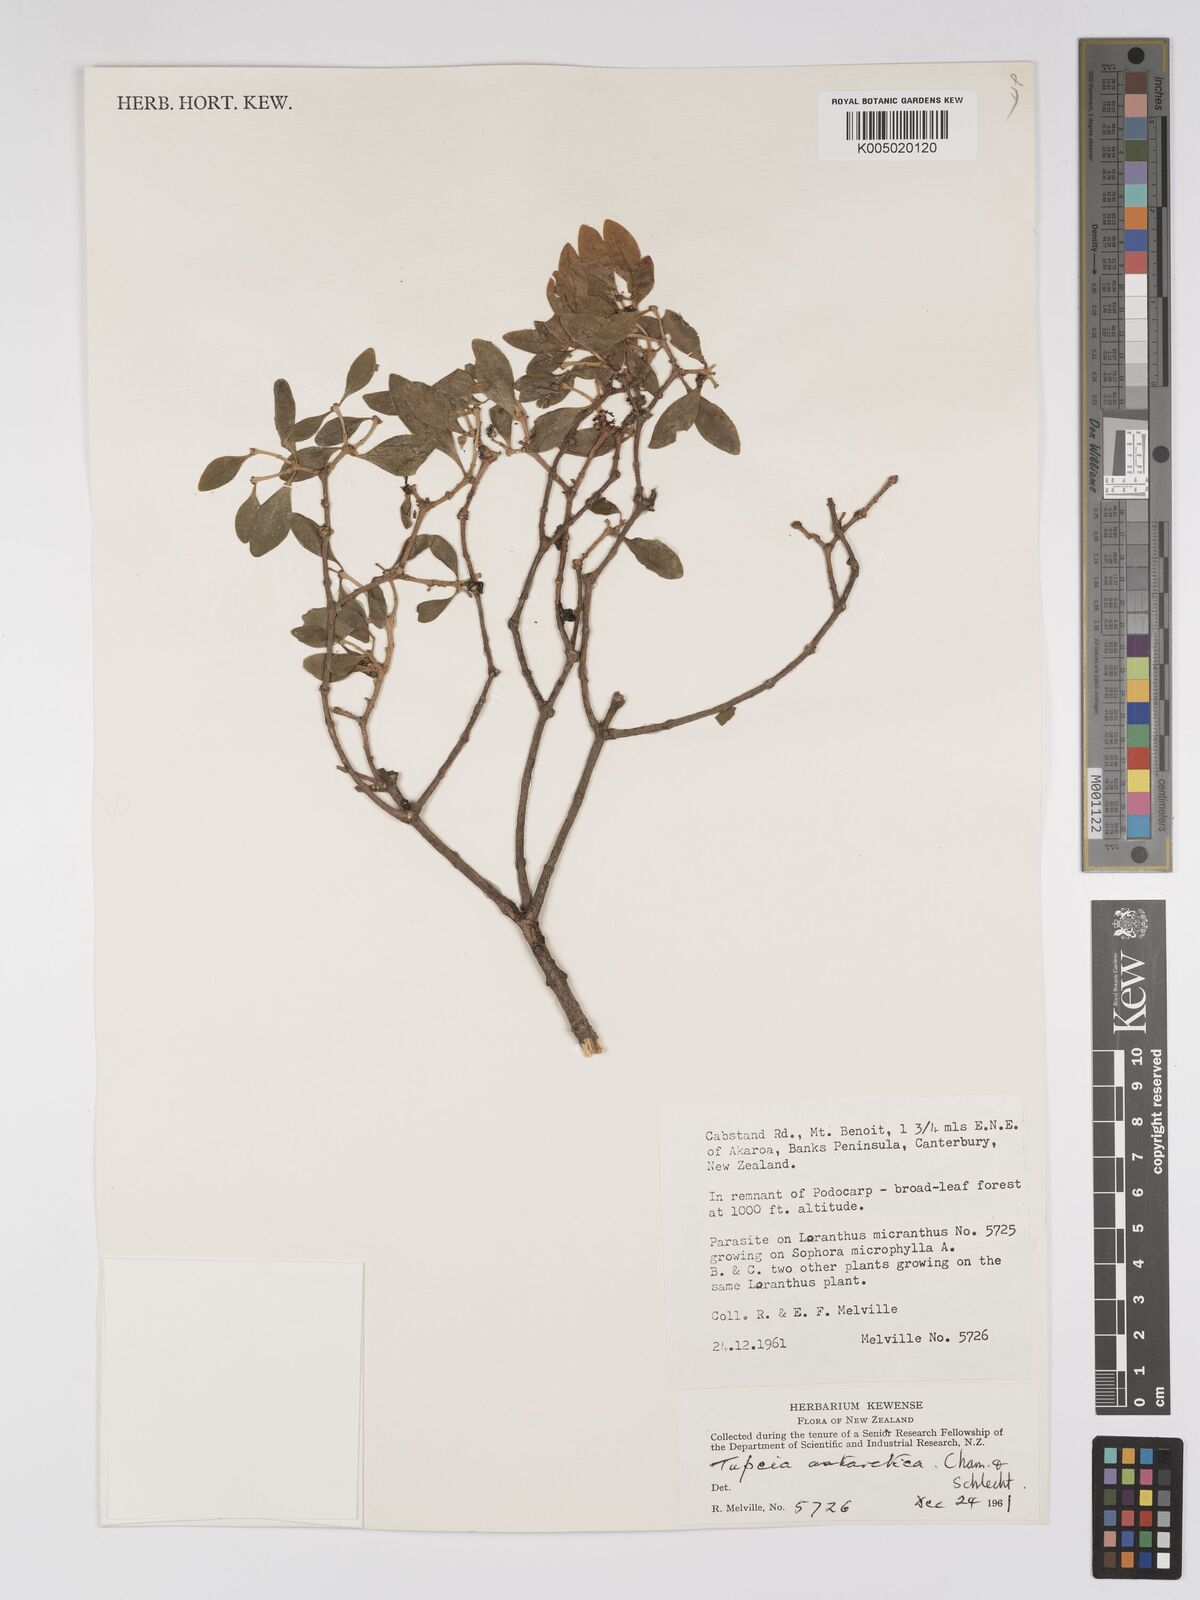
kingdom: Plantae
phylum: Tracheophyta
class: Magnoliopsida
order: Santalales
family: Loranthaceae
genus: Tupeia
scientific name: Tupeia antarctica
